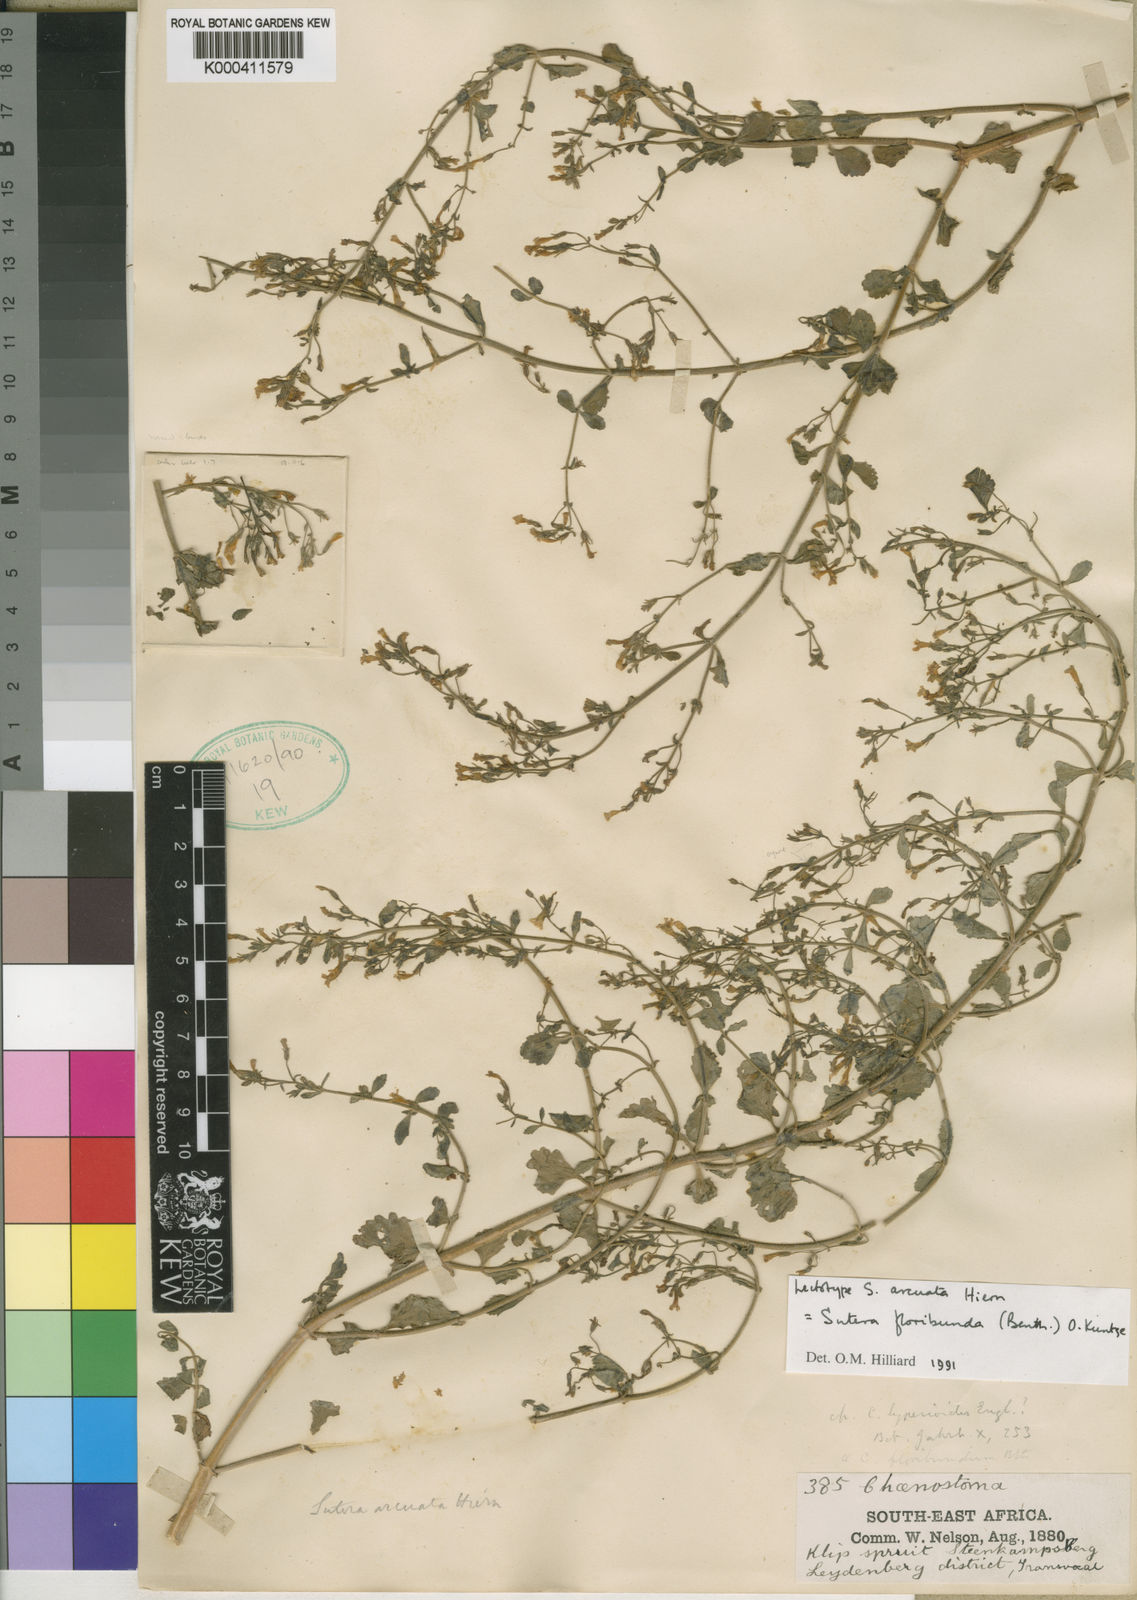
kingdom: Plantae
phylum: Tracheophyta
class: Magnoliopsida
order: Lamiales
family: Scrophulariaceae
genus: Chaenostoma
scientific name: Chaenostoma floribundum
